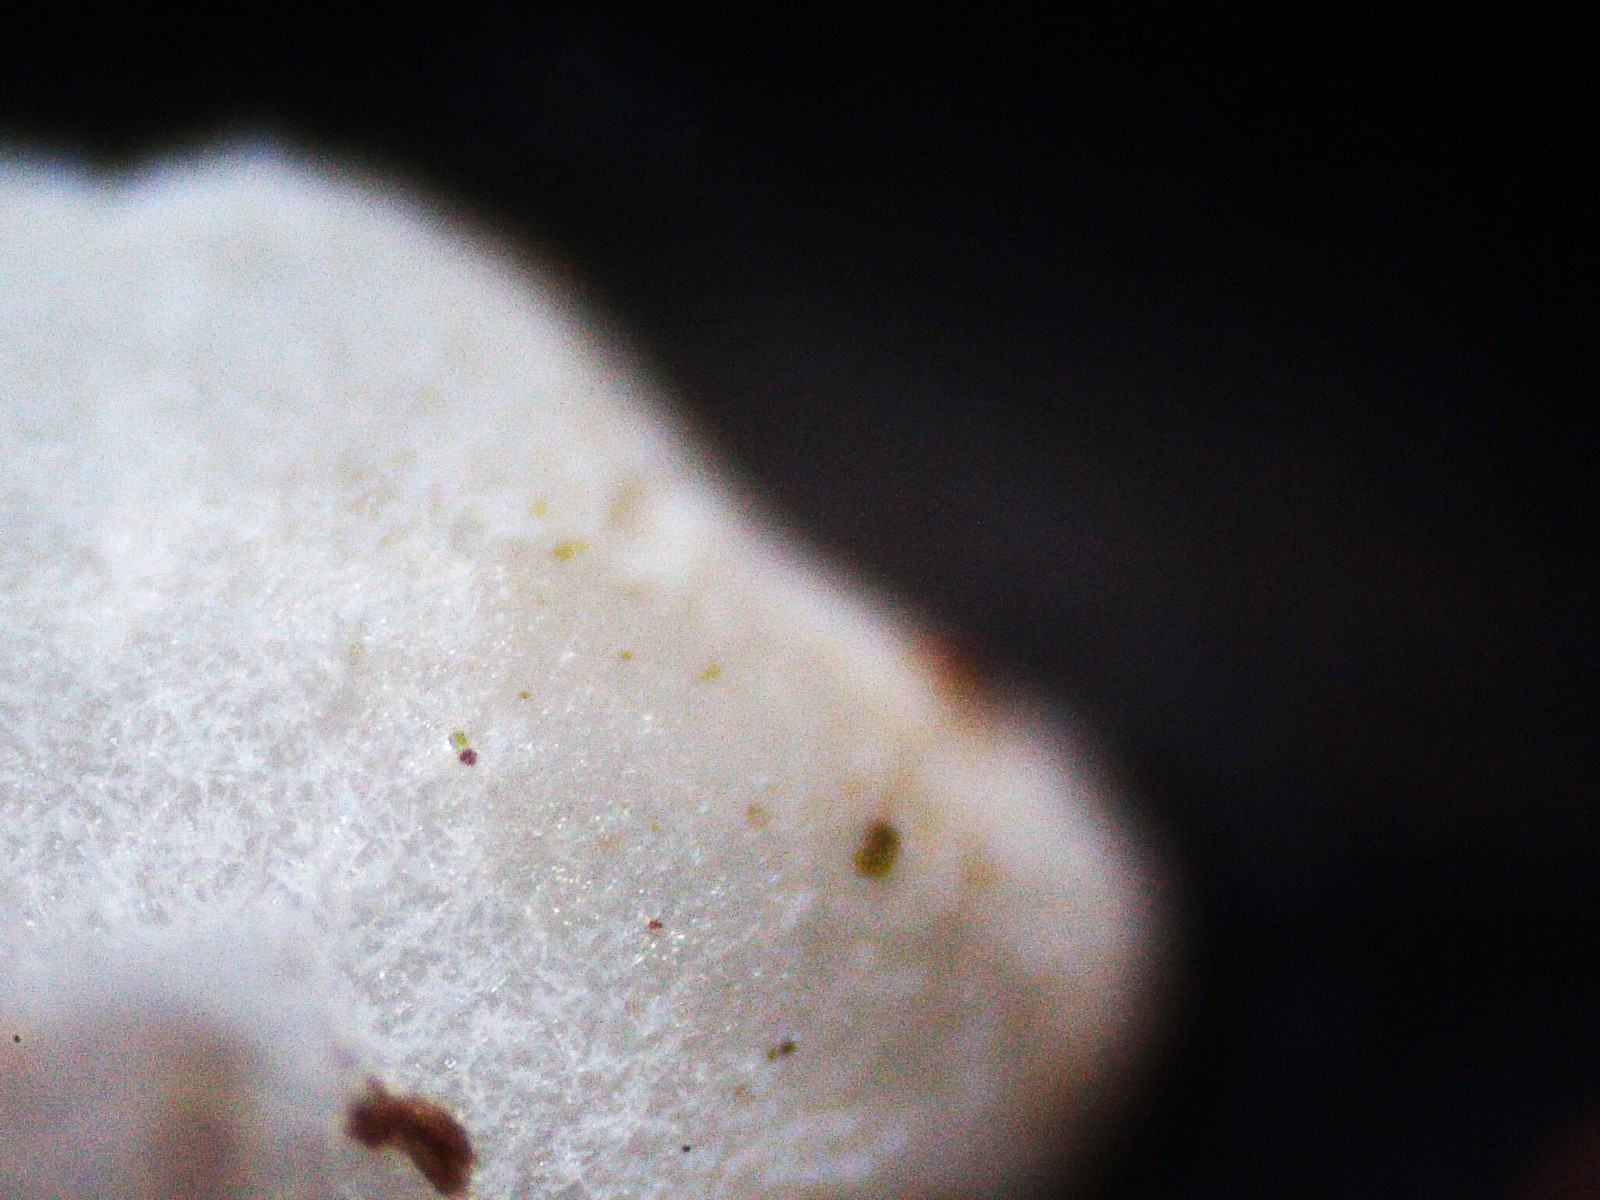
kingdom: Fungi
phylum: Ascomycota
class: Leotiomycetes
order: Helotiales
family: Lachnaceae
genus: Lachnum
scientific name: Lachnum
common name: frynseskive
